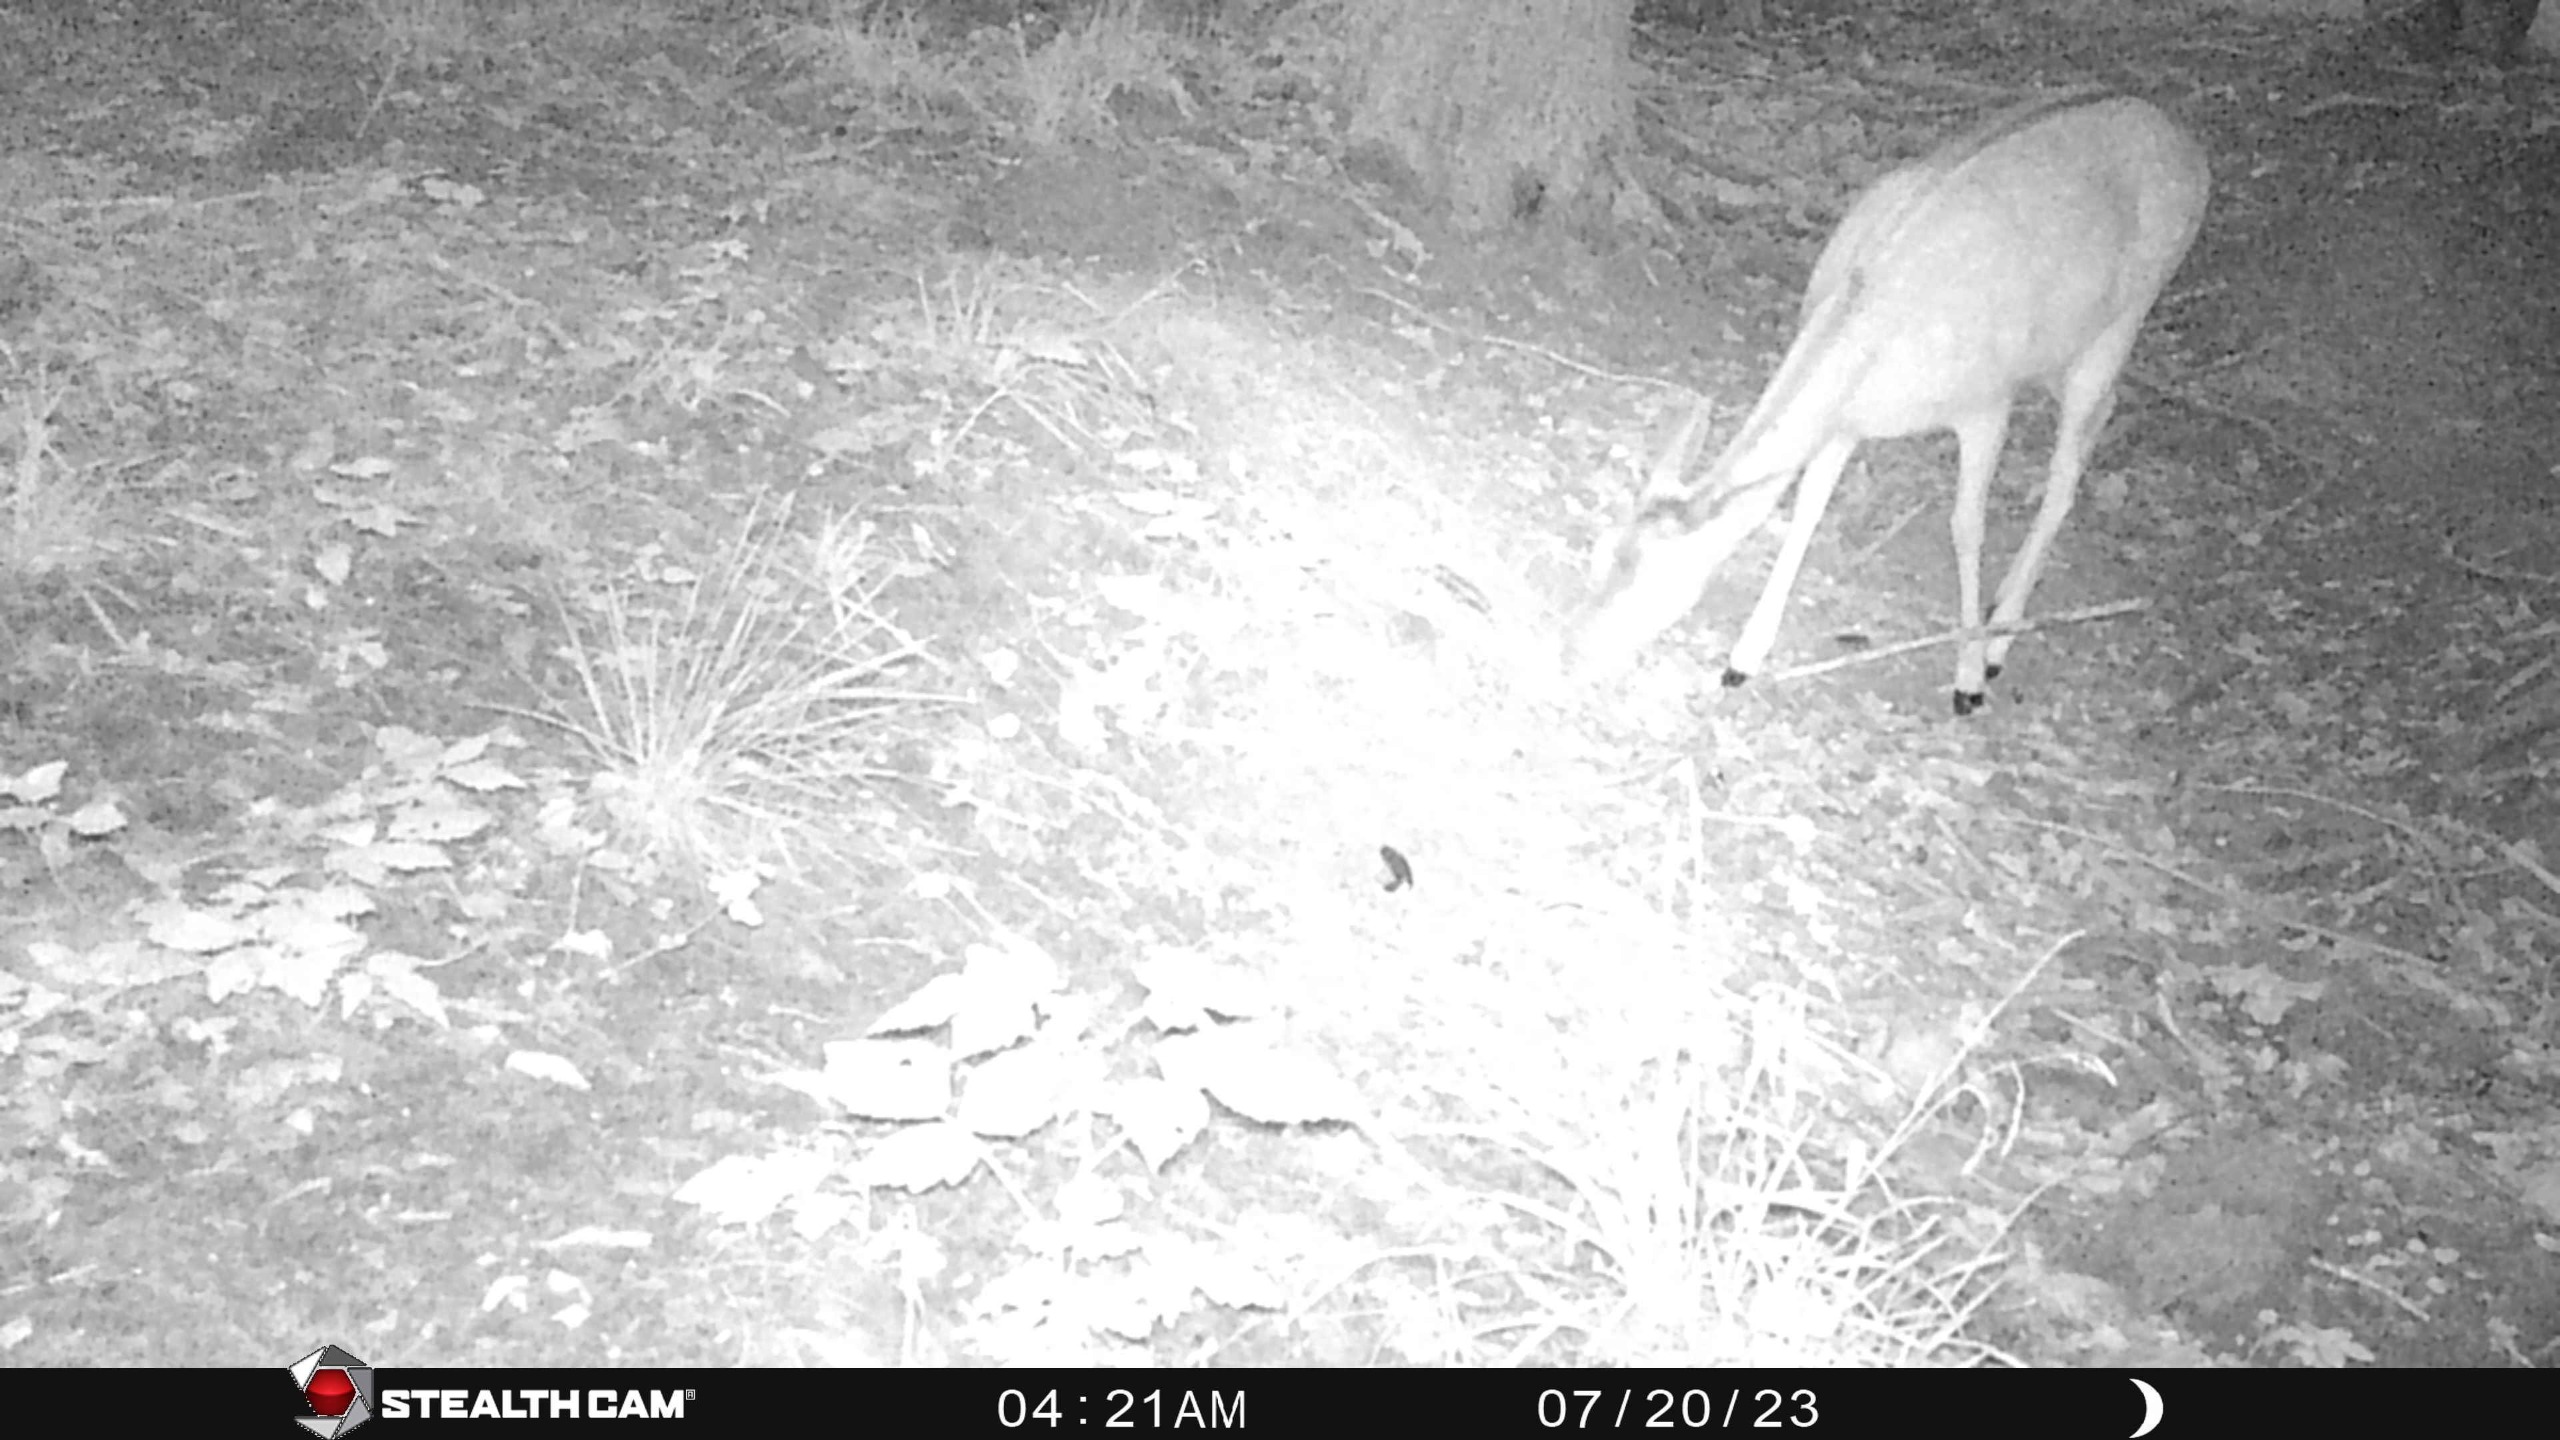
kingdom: Animalia
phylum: Chordata
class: Mammalia
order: Artiodactyla
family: Cervidae
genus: Dama
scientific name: Dama dama
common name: Dådyr
